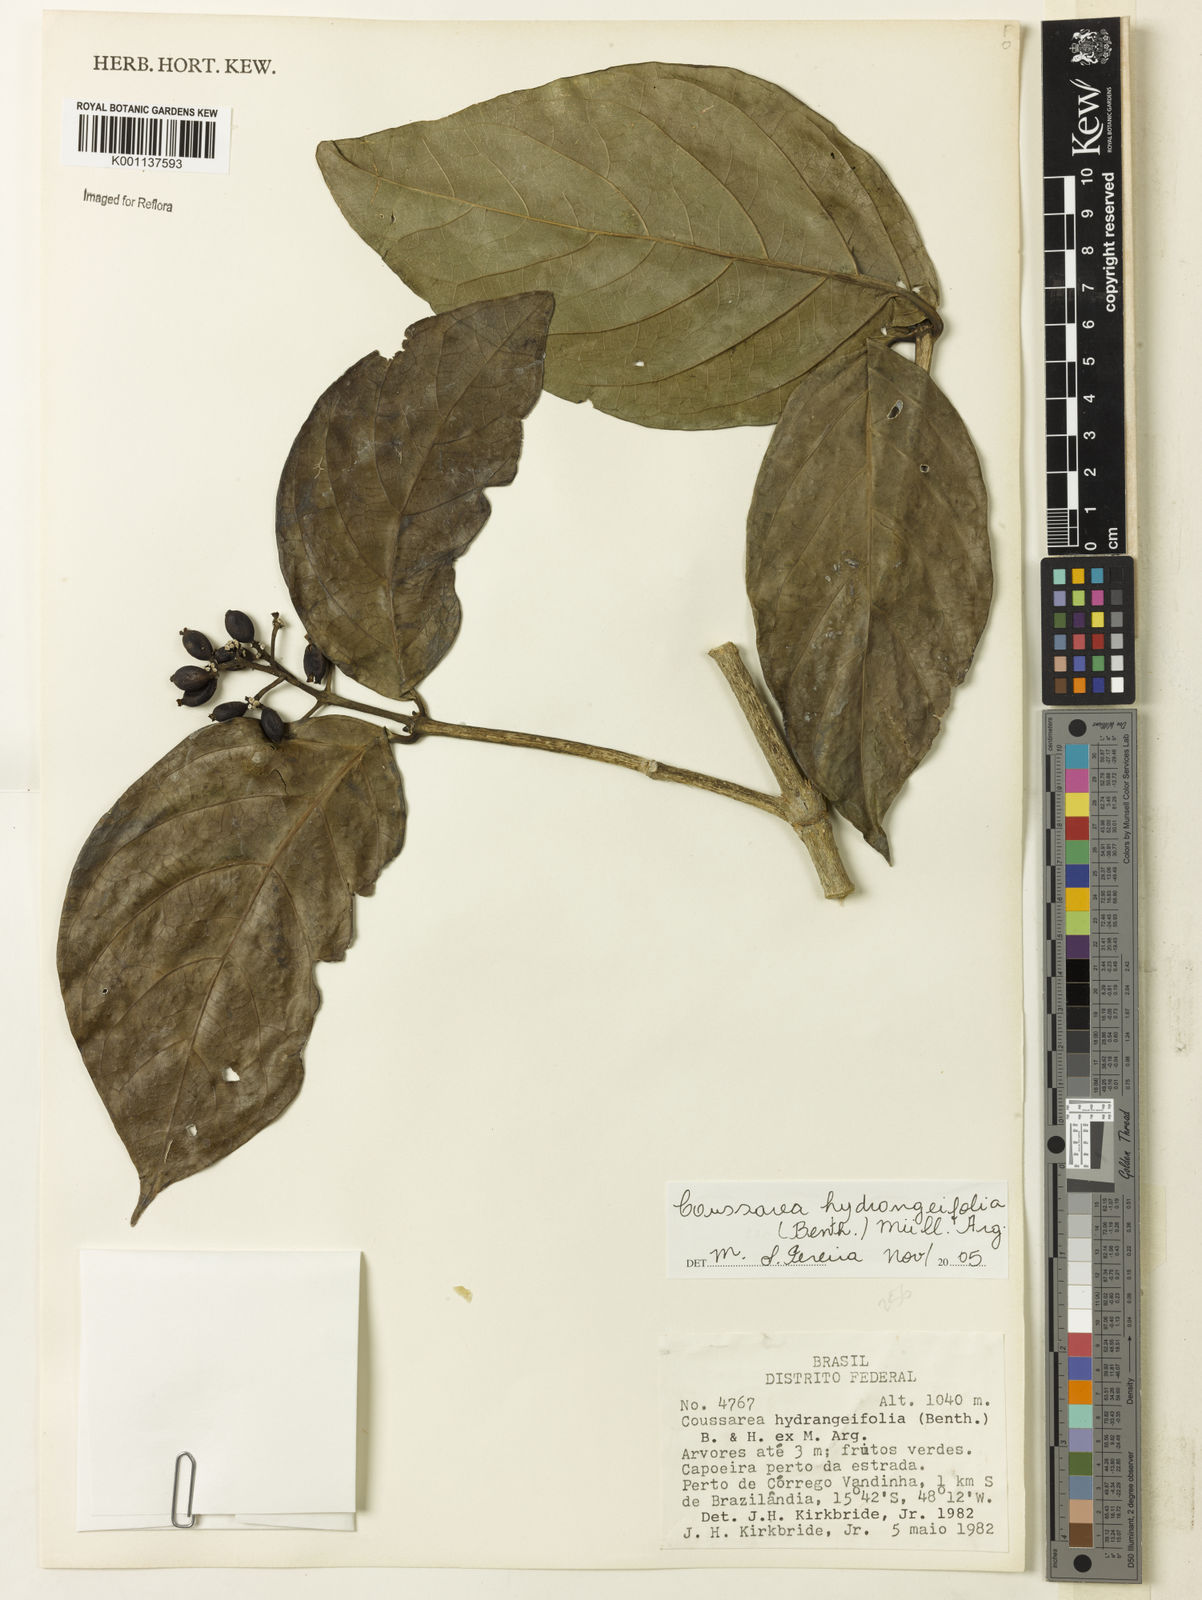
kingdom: Plantae
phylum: Tracheophyta
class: Magnoliopsida
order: Gentianales
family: Rubiaceae
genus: Coussarea
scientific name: Coussarea
